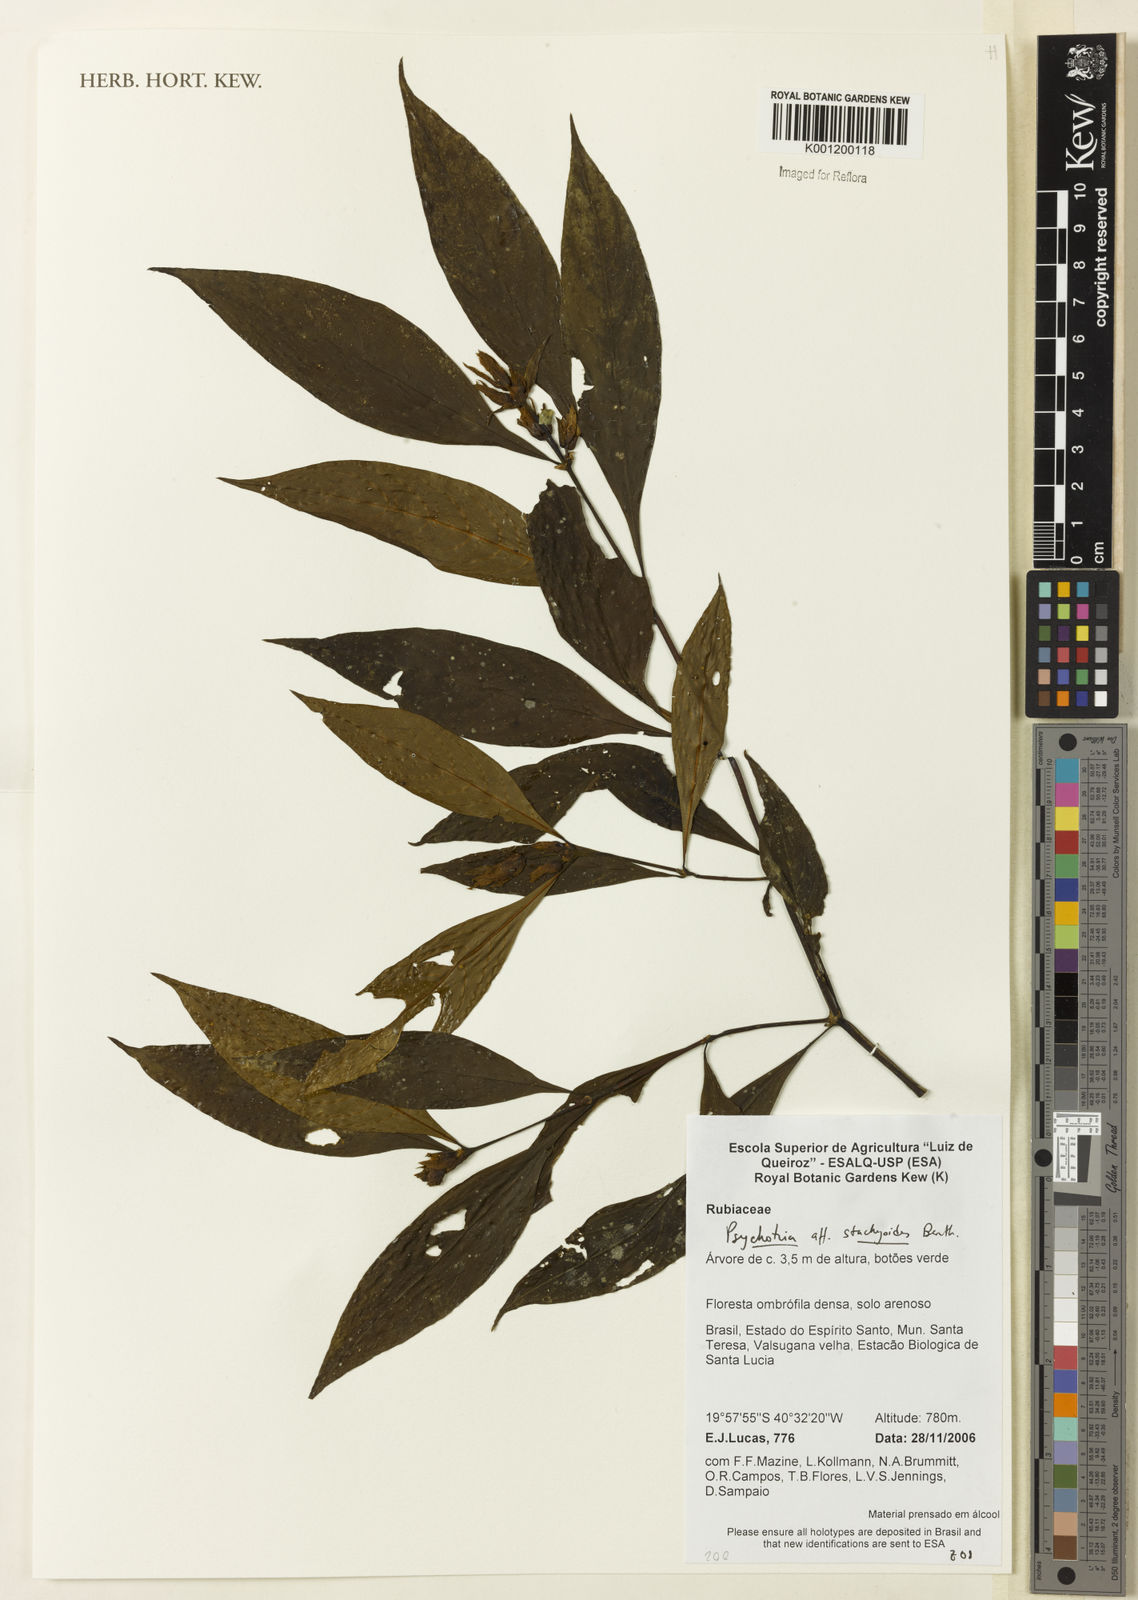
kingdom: Plantae
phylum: Tracheophyta
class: Magnoliopsida
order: Gentianales
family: Rubiaceae
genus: Psychotria
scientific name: Psychotria stachyoides
